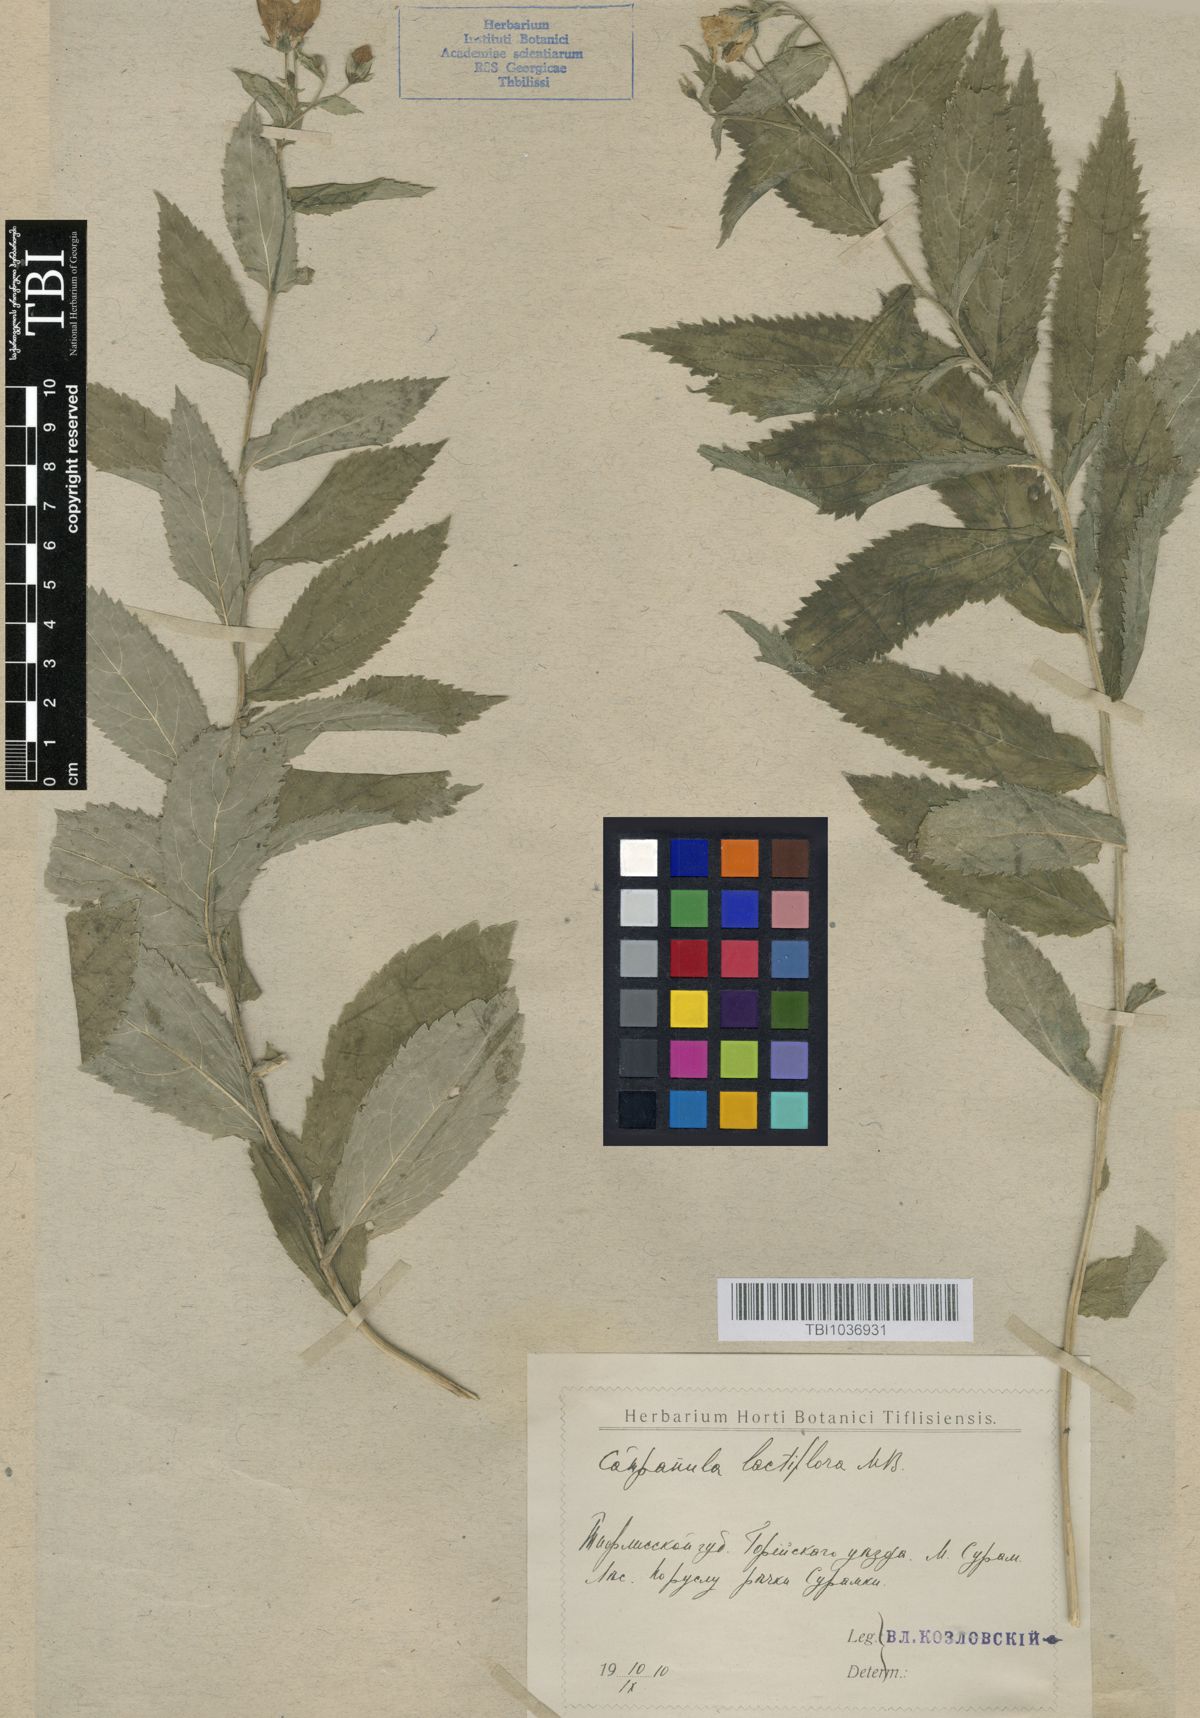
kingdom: Plantae
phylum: Tracheophyta
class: Magnoliopsida
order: Asterales
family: Campanulaceae
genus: Campanula
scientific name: Campanula lactiflora
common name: Milky bellflower
